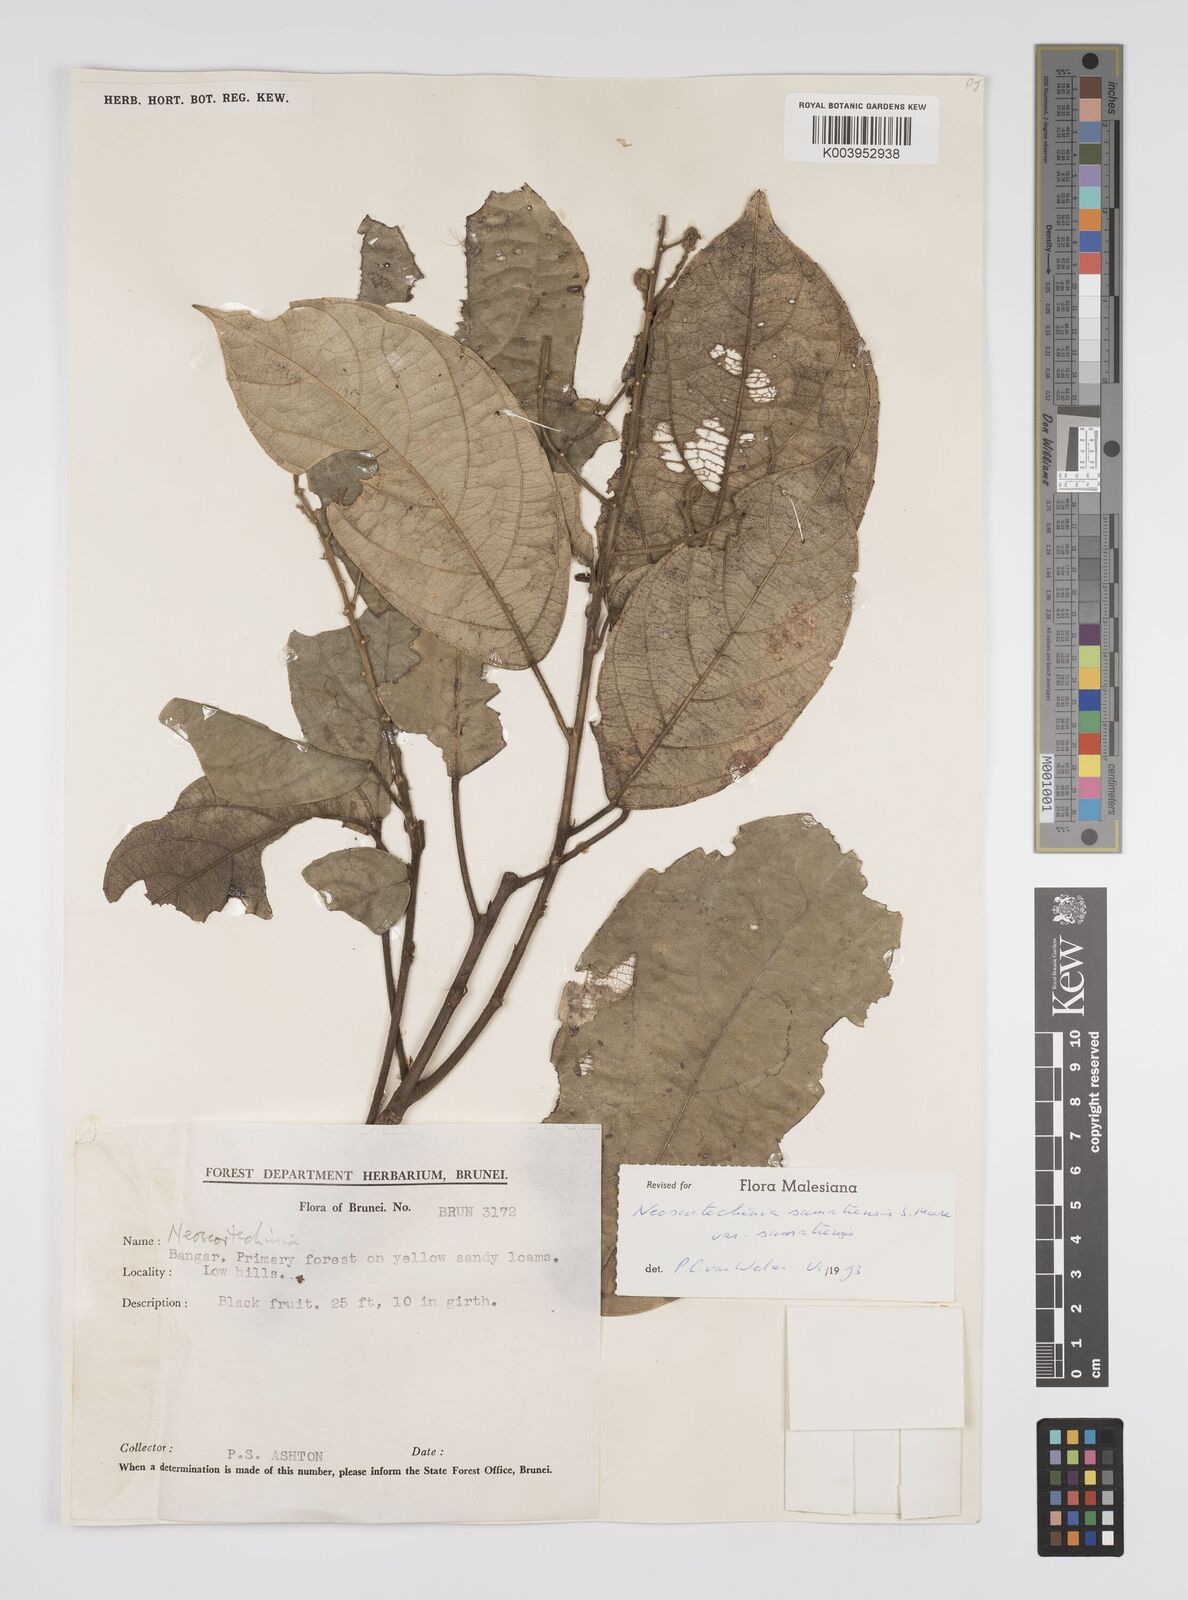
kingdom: Plantae
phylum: Tracheophyta
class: Magnoliopsida
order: Malpighiales
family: Euphorbiaceae
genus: Neoscortechinia
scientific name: Neoscortechinia sumatrensis
